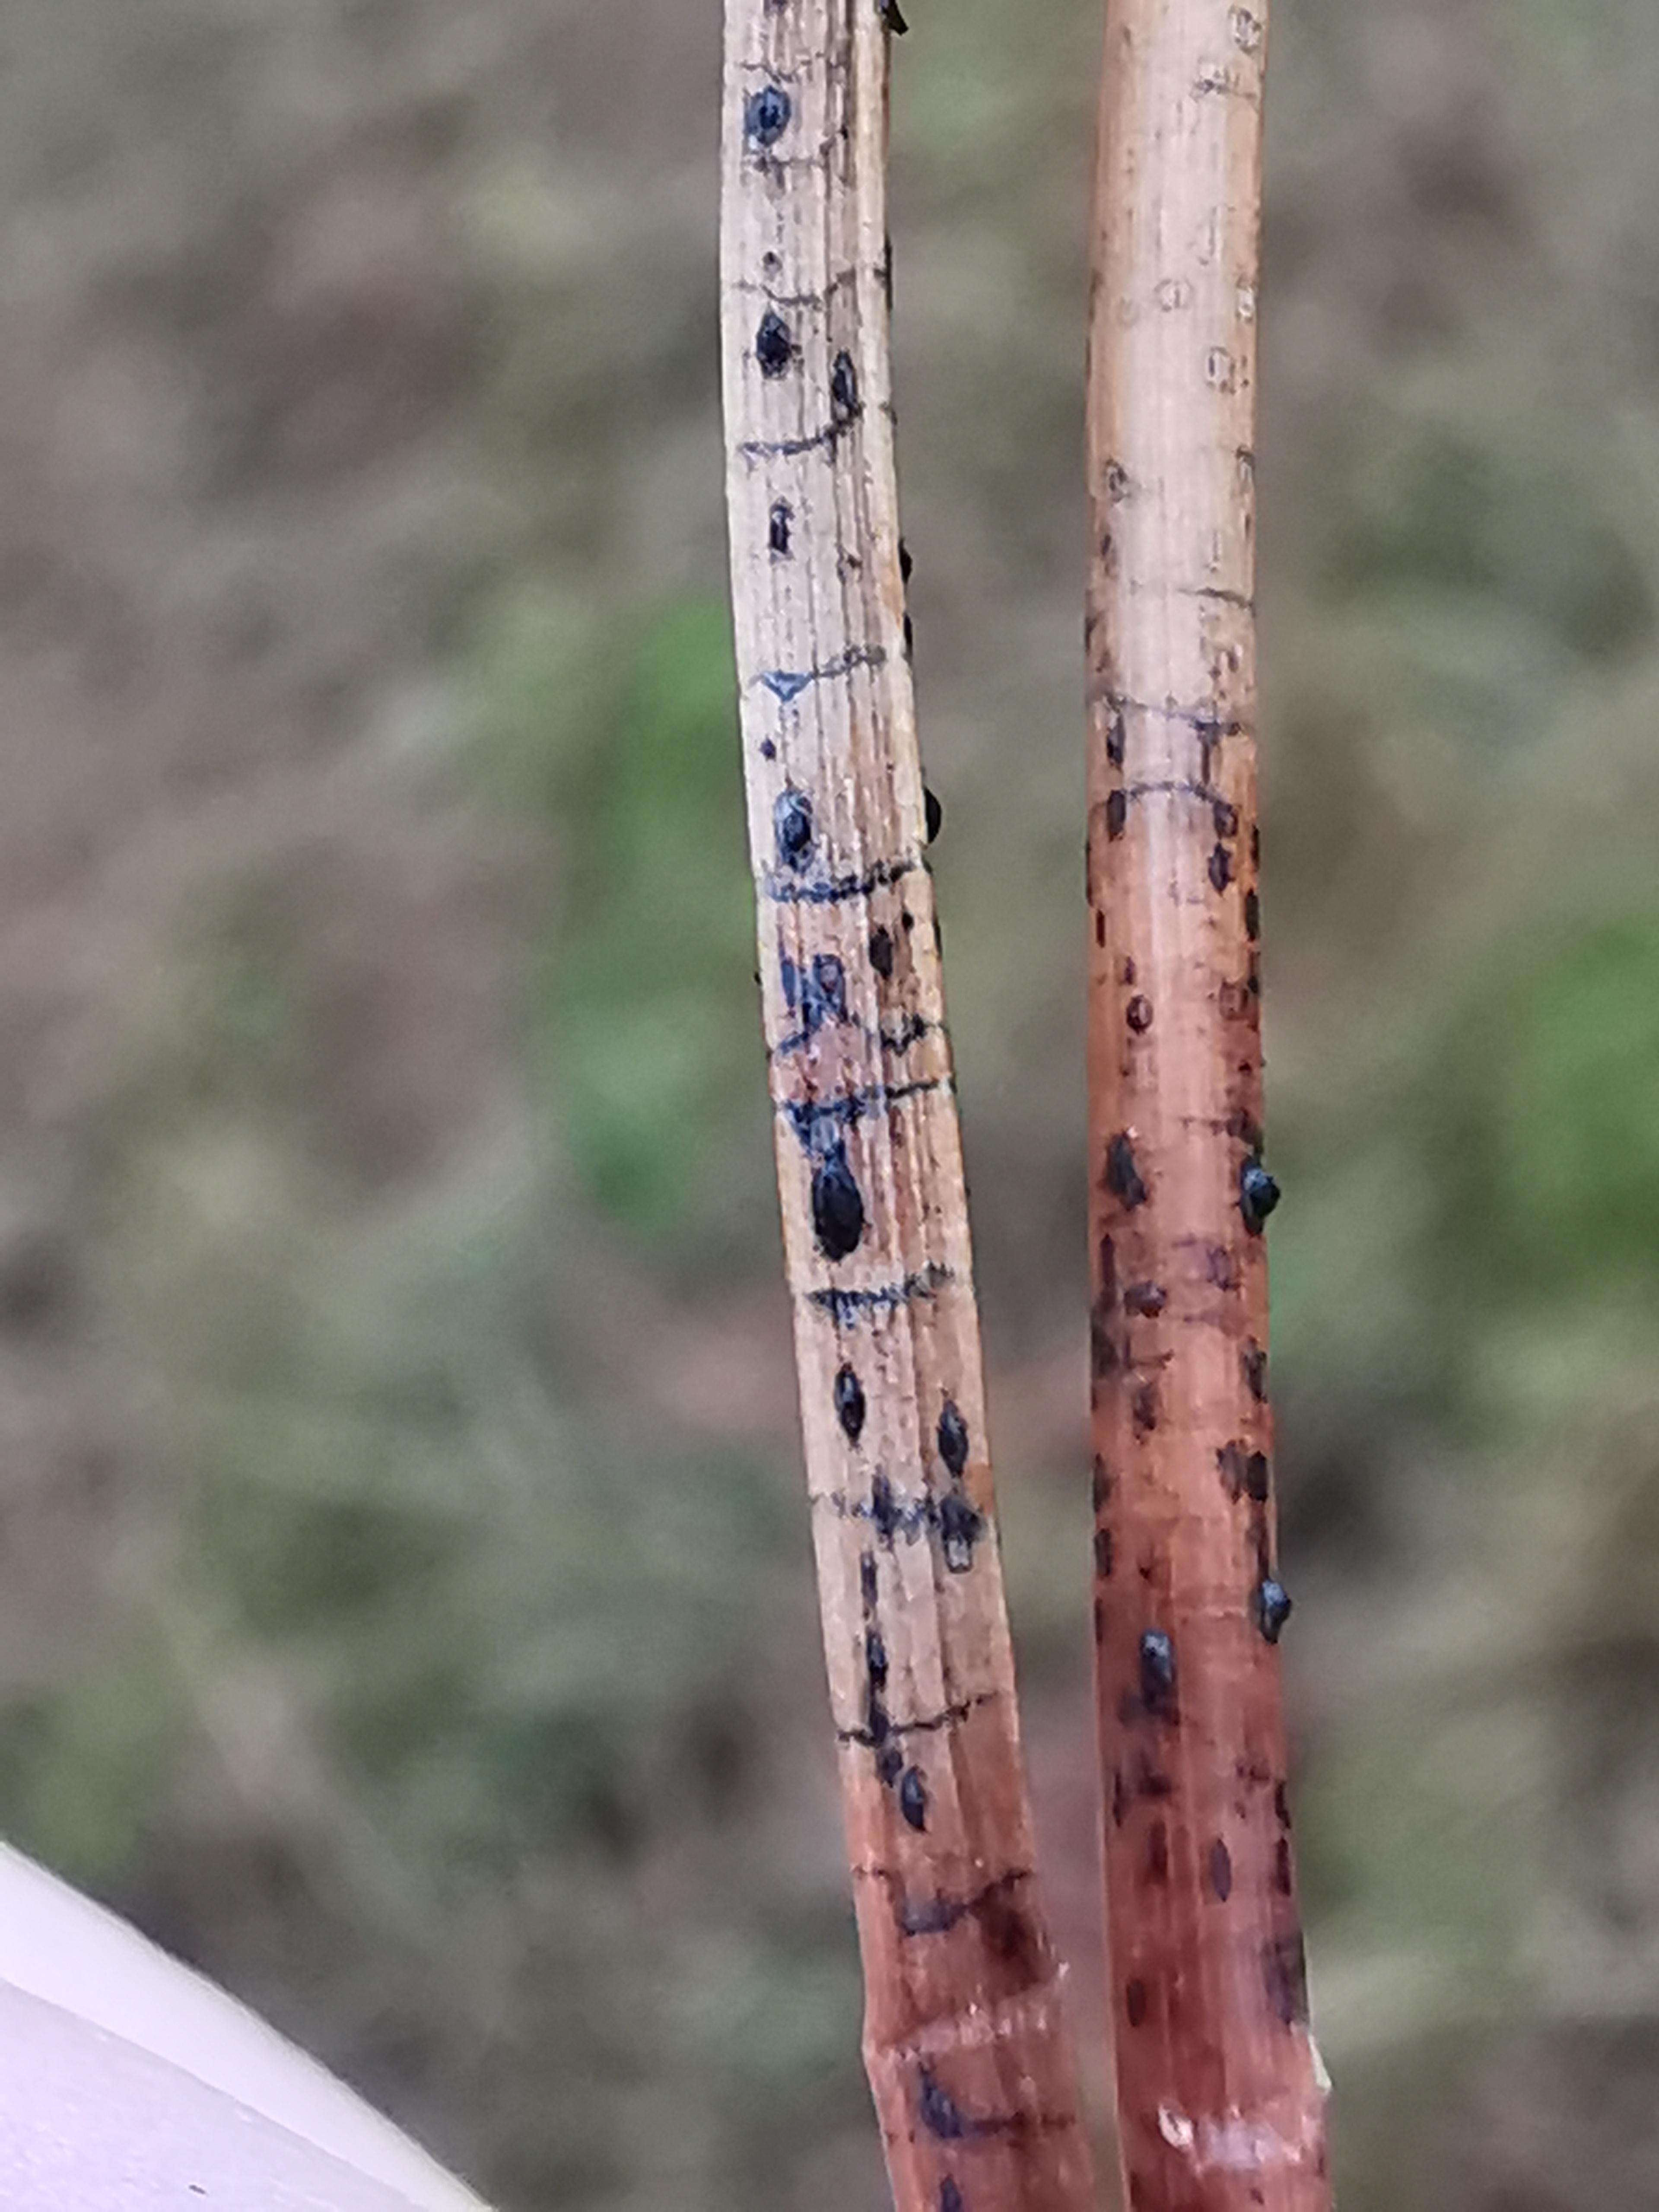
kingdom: Fungi
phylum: Ascomycota
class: Leotiomycetes
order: Rhytismatales
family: Rhytismataceae
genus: Lophodermium
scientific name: Lophodermium pinastri
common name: fyrre-fureplet
